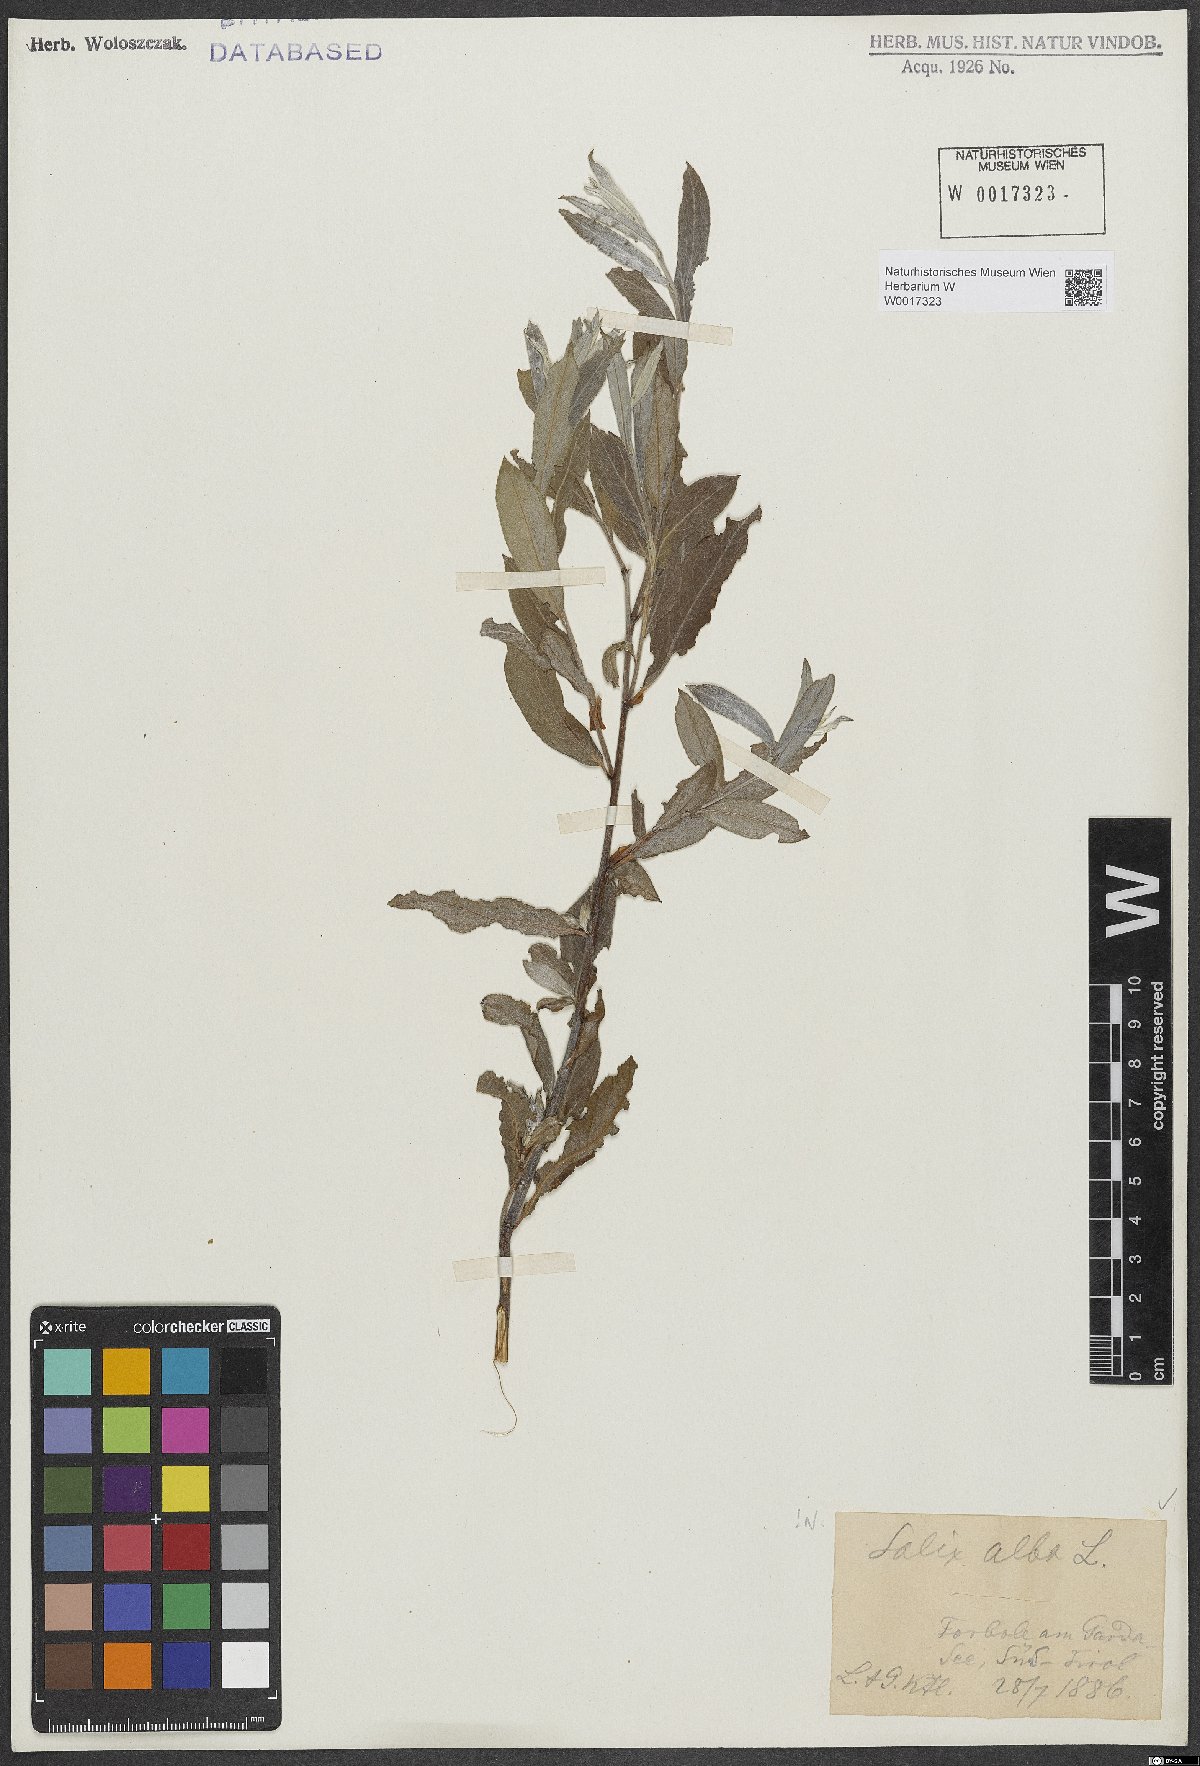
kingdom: Plantae
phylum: Tracheophyta
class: Magnoliopsida
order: Malpighiales
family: Salicaceae
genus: Salix
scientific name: Salix alba
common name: White willow
